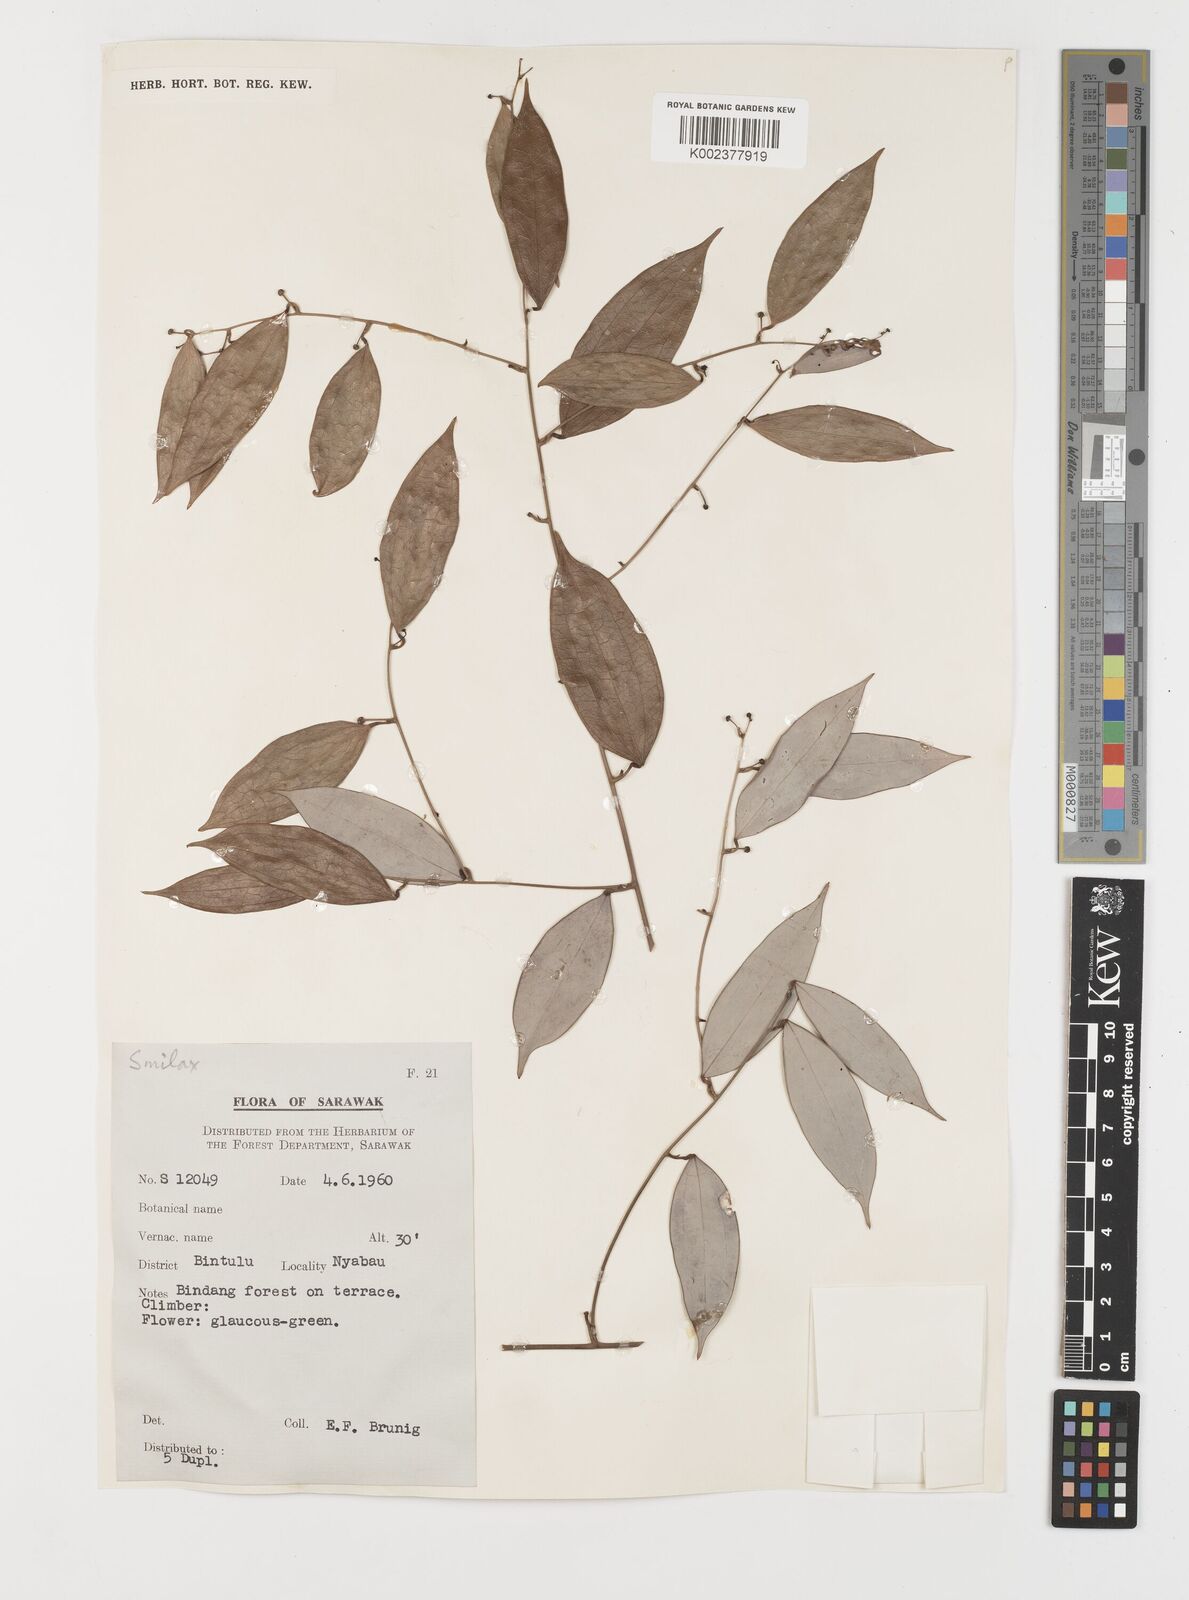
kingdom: Plantae
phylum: Tracheophyta
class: Liliopsida
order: Liliales
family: Smilacaceae
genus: Smilax
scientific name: Smilax
